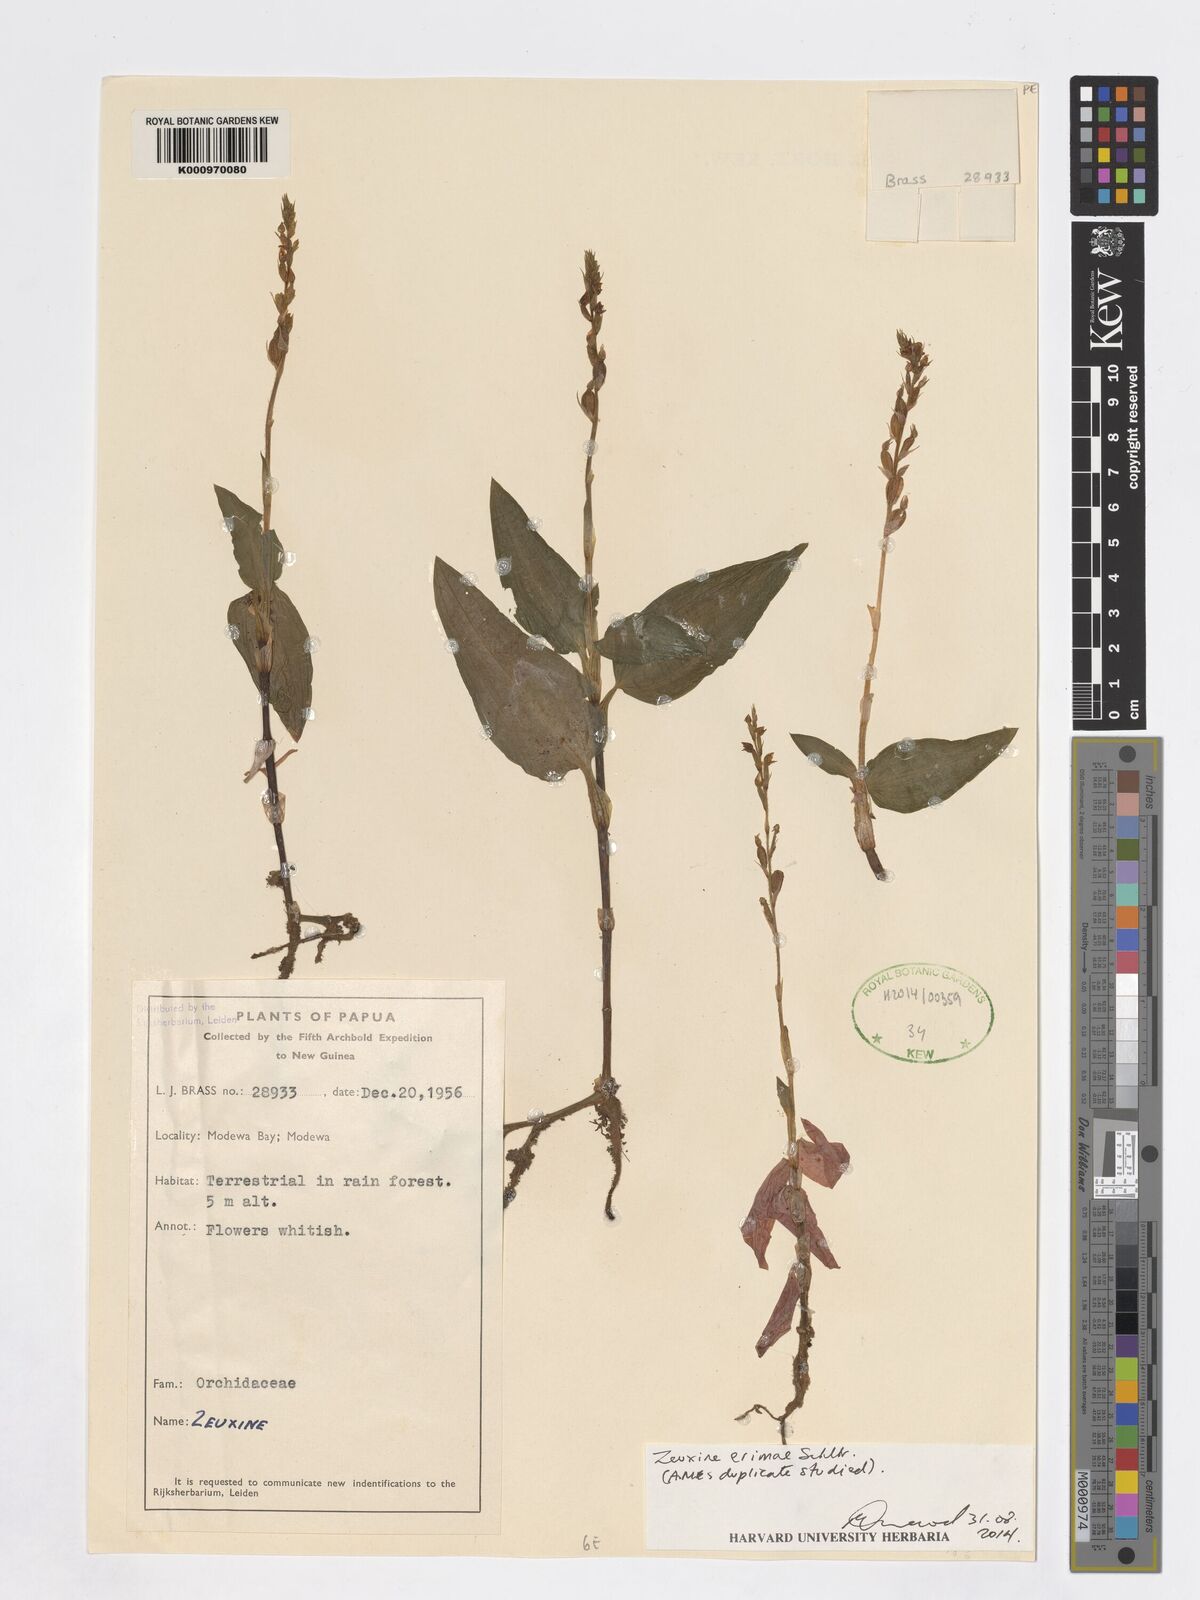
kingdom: Plantae
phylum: Tracheophyta
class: Liliopsida
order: Asparagales
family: Orchidaceae
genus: Zeuxine
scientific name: Zeuxine erimae
